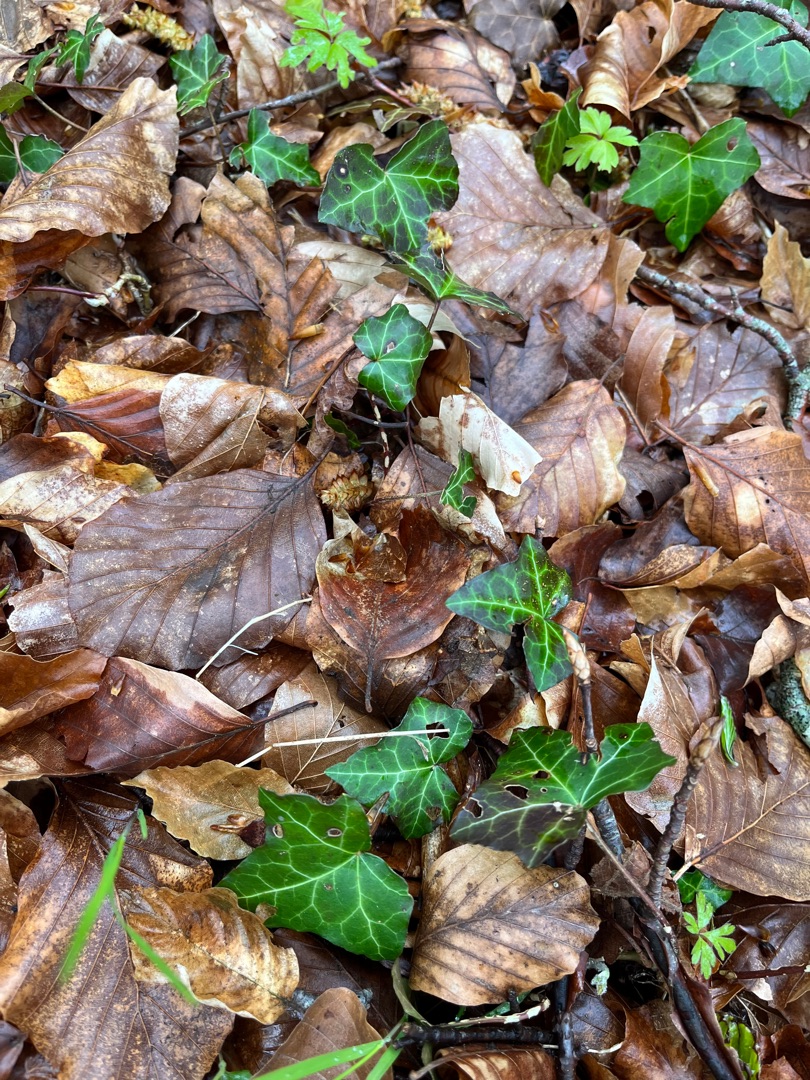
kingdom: Plantae
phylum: Tracheophyta
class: Magnoliopsida
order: Apiales
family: Araliaceae
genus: Hedera
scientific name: Hedera helix
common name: Vedbend
